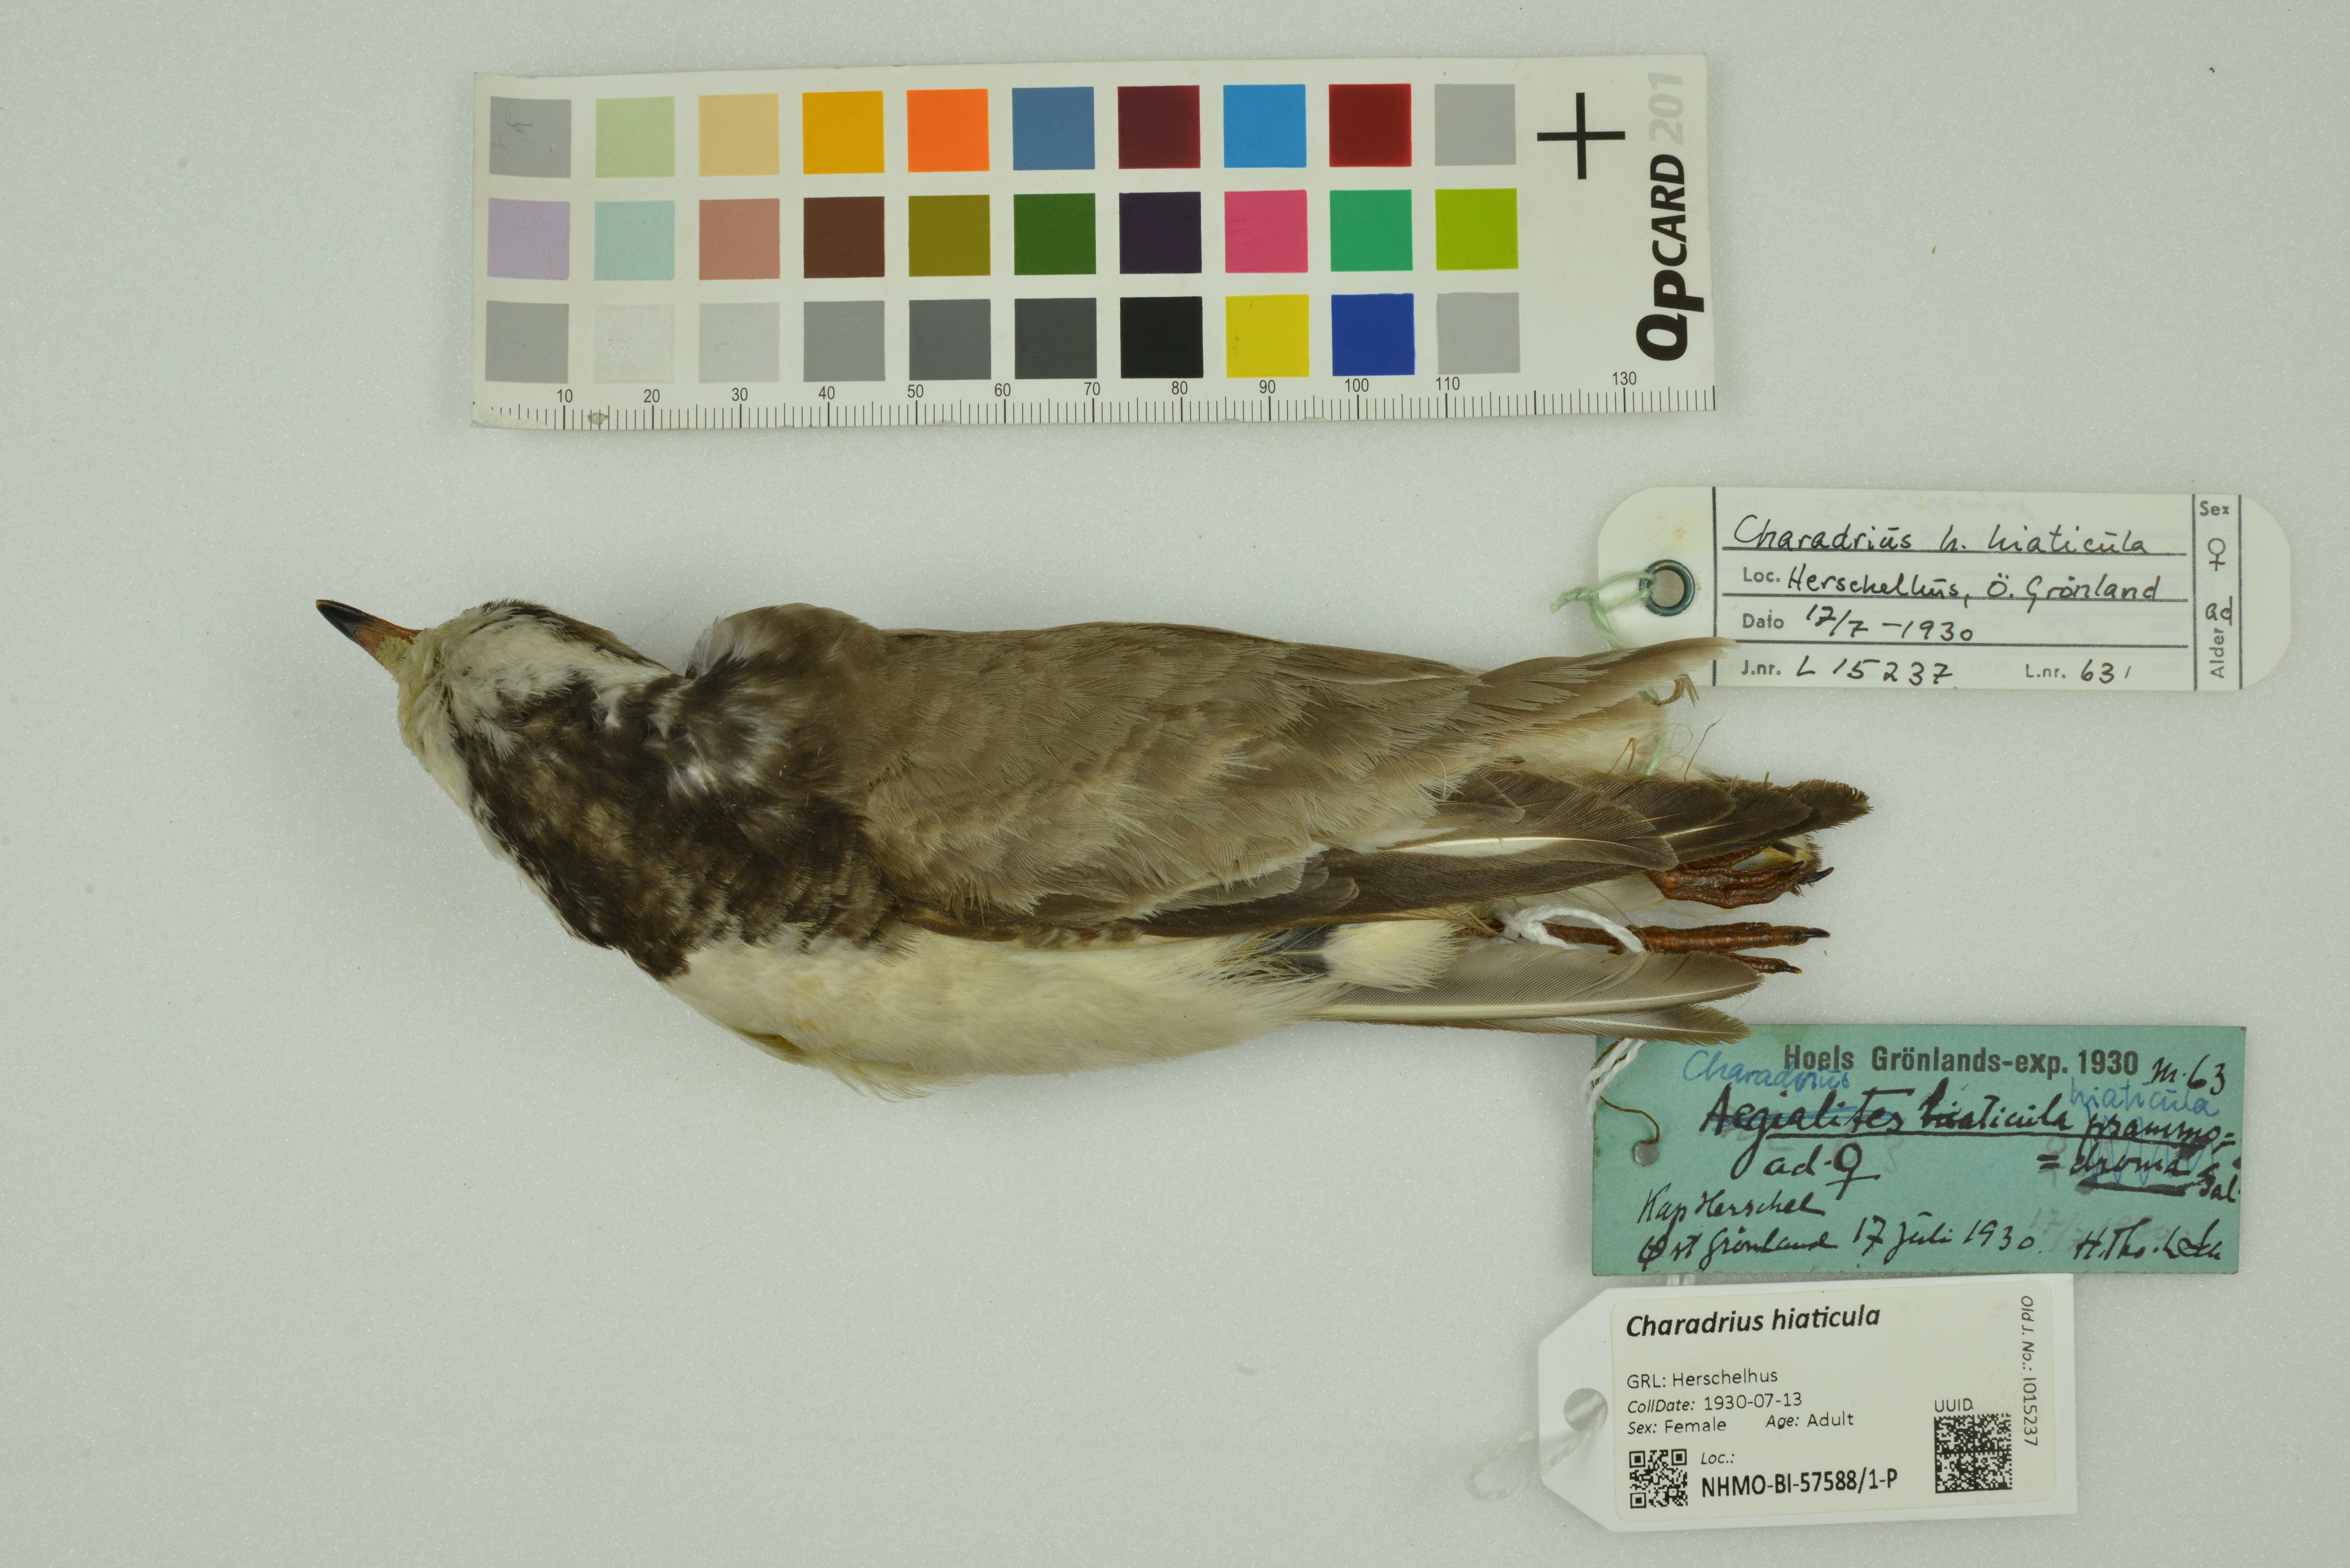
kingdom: Animalia
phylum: Chordata
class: Aves
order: Charadriiformes
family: Charadriidae
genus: Charadrius
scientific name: Charadrius hiaticula
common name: Common ringed plover
